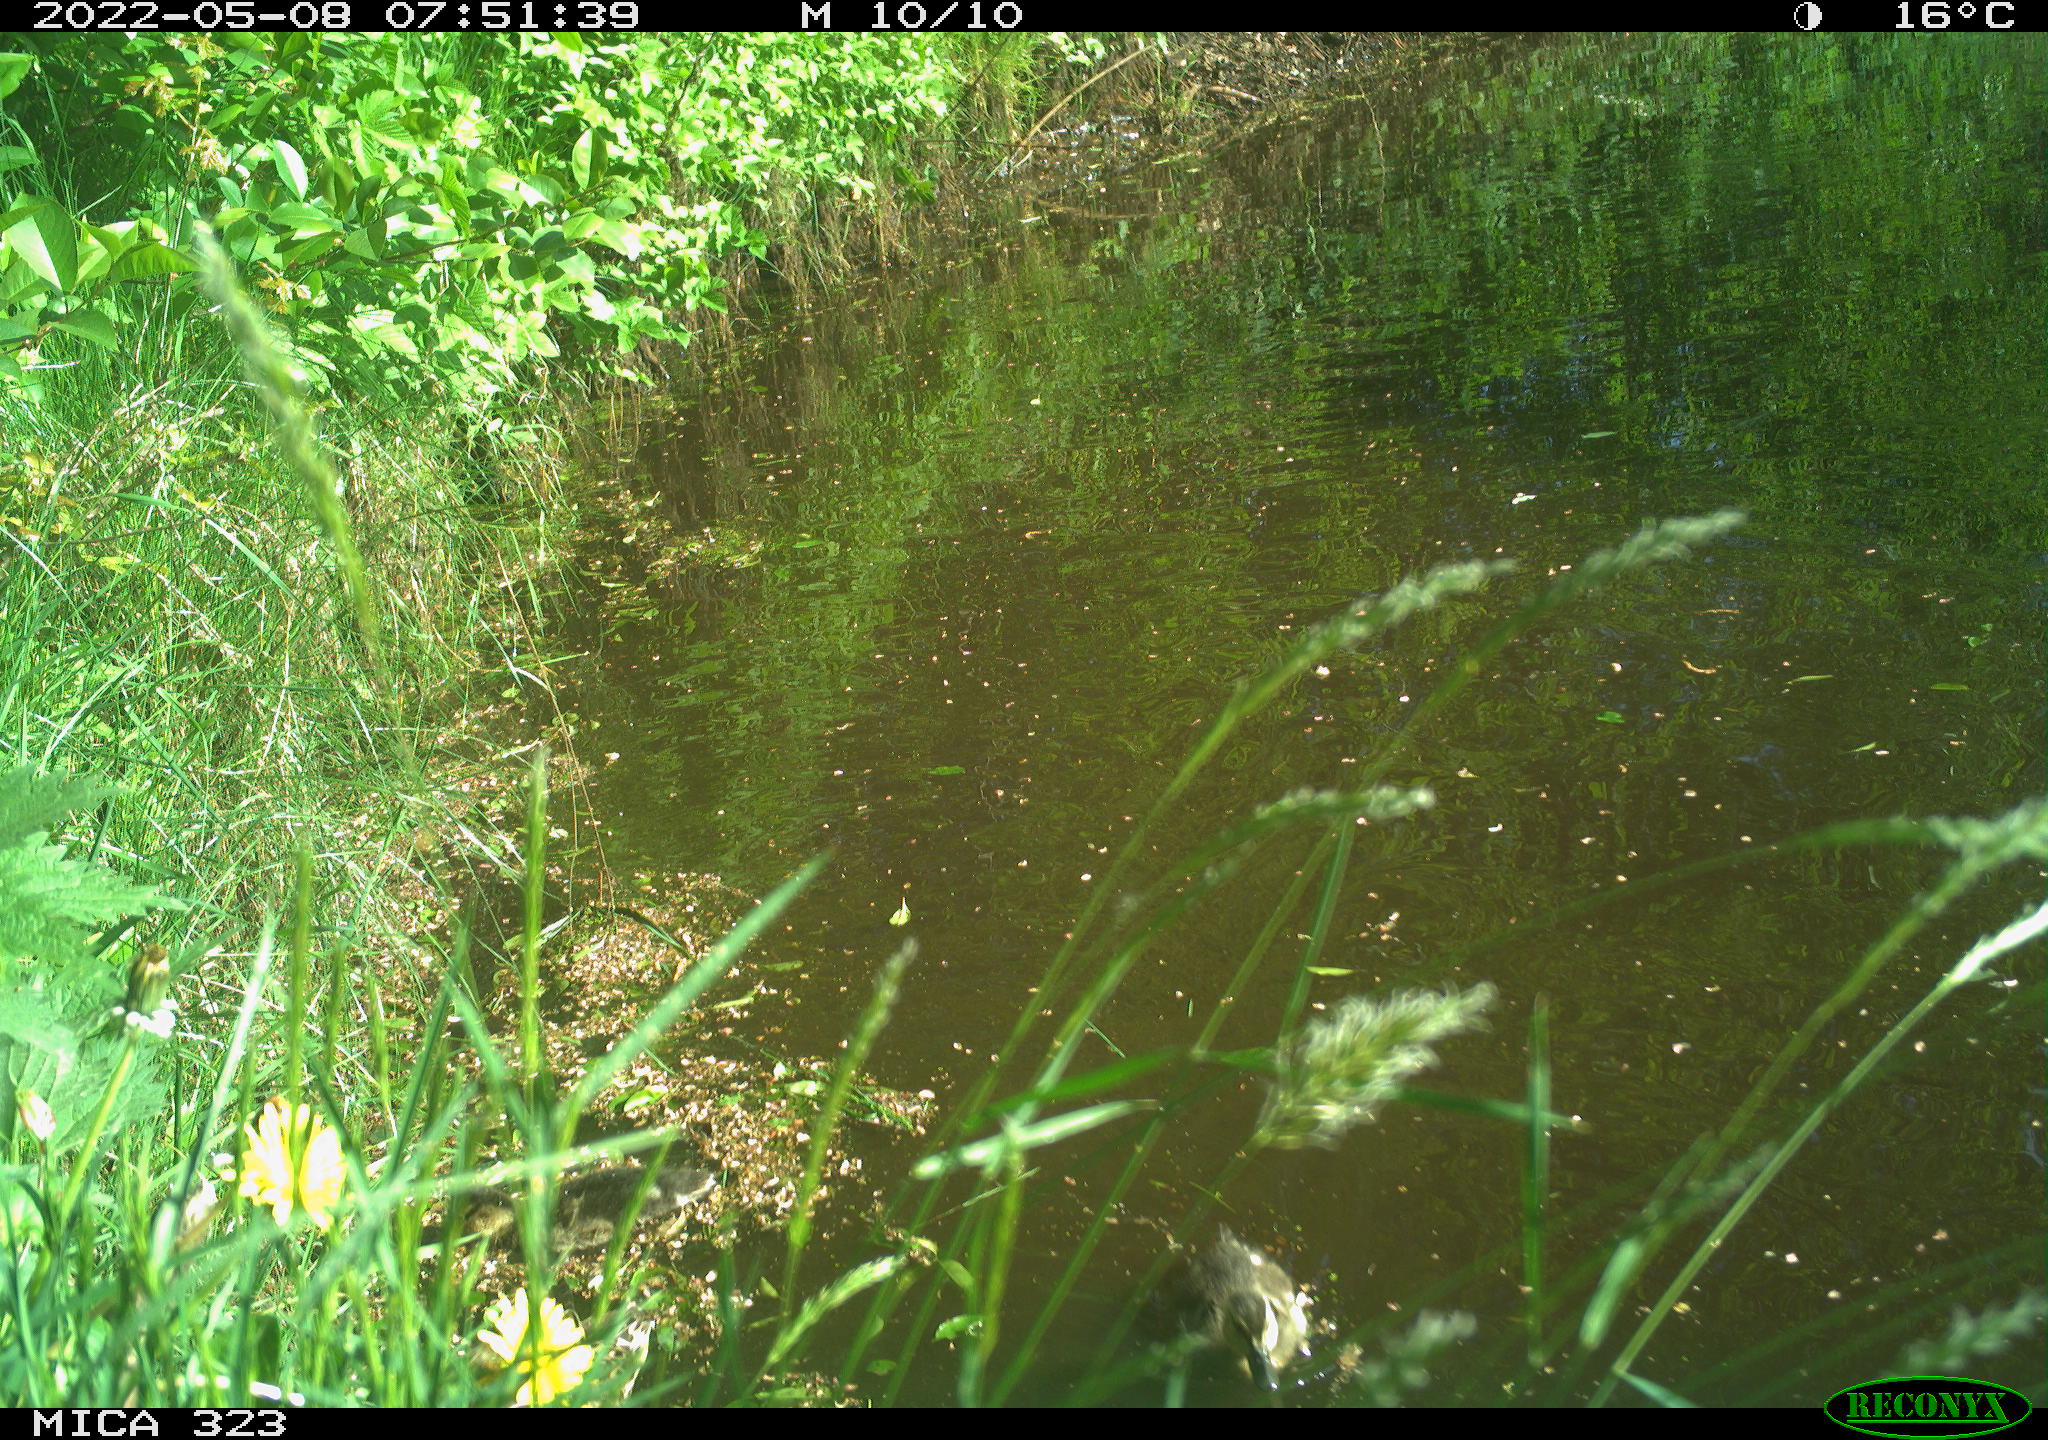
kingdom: Animalia
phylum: Chordata
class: Aves
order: Anseriformes
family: Anatidae
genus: Anas
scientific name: Anas platyrhynchos
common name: Mallard
